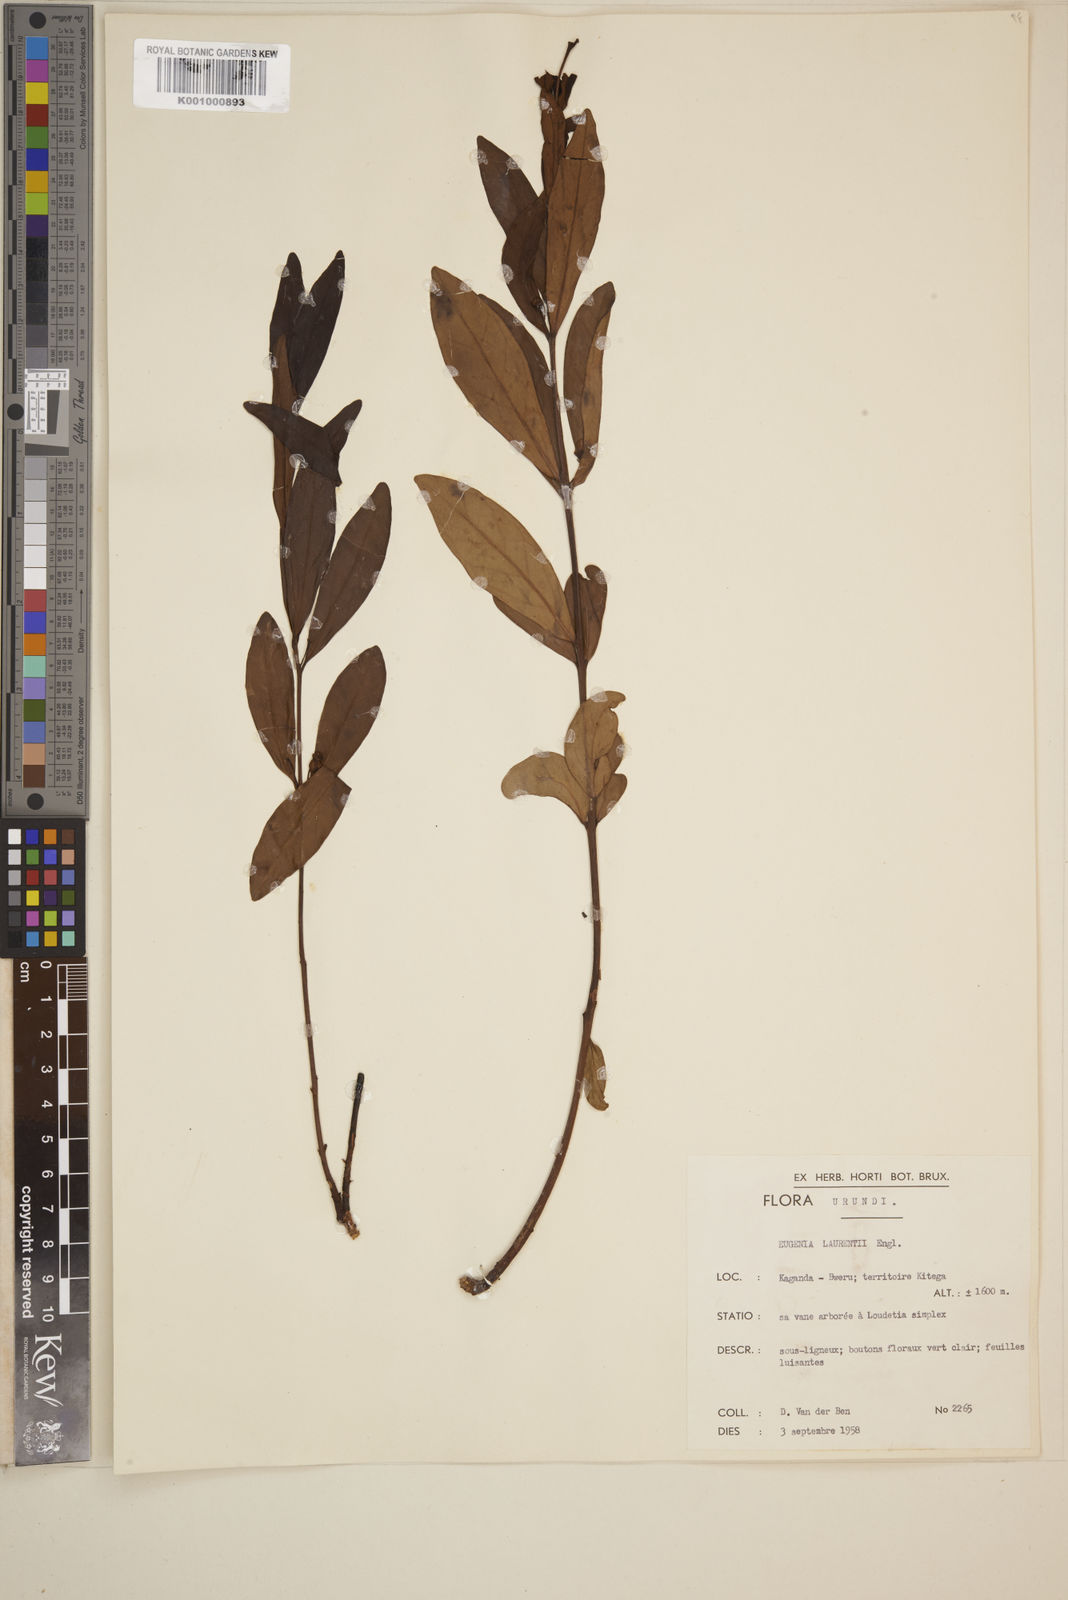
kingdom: Plantae
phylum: Tracheophyta
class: Magnoliopsida
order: Myrtales
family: Myrtaceae
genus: Eugenia
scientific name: Eugenia malangensis
